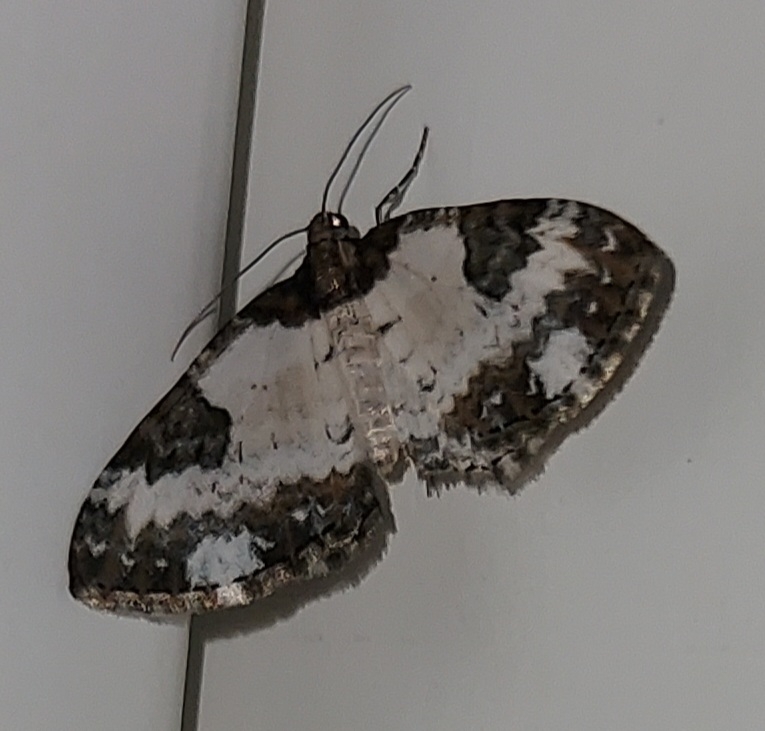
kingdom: Animalia
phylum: Arthropoda
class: Insecta
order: Lepidoptera
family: Geometridae
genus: Melanthia
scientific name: Melanthia procellata
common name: Klematismåler
